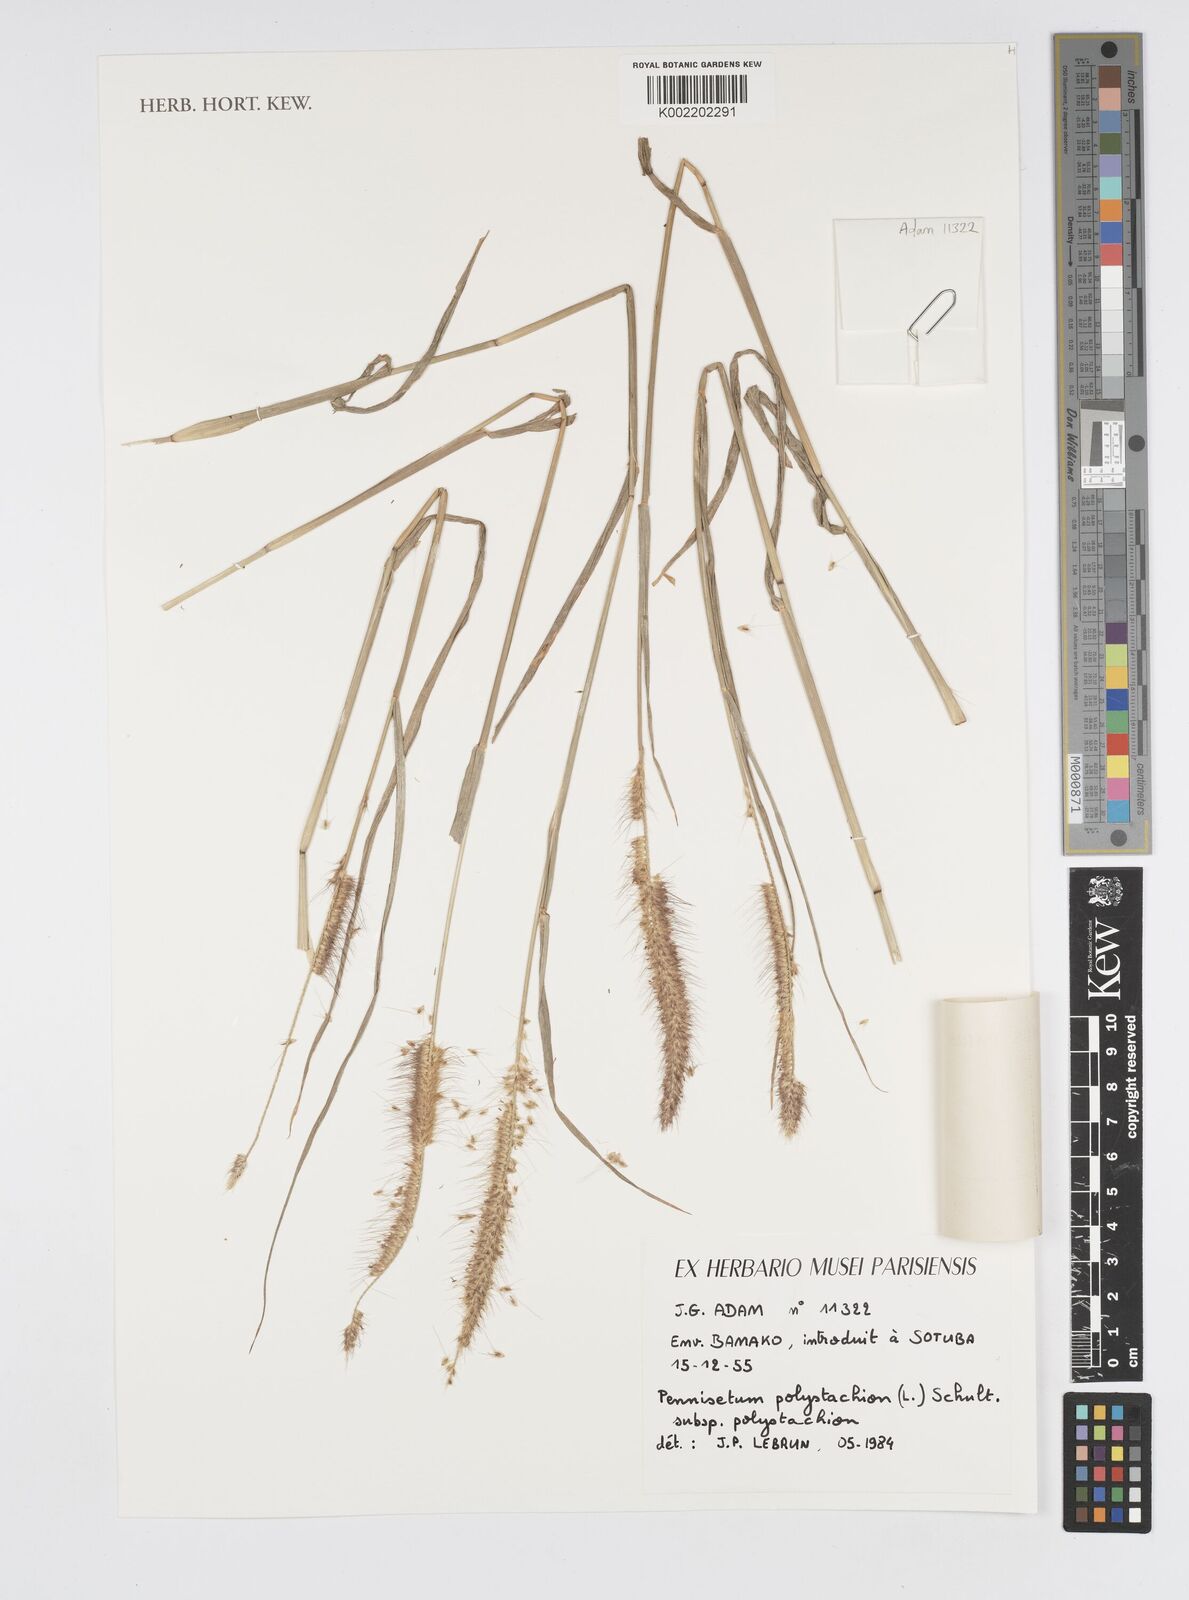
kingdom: Plantae
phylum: Tracheophyta
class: Liliopsida
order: Poales
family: Poaceae
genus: Setaria
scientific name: Setaria parviflora
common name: Knotroot bristle-grass
